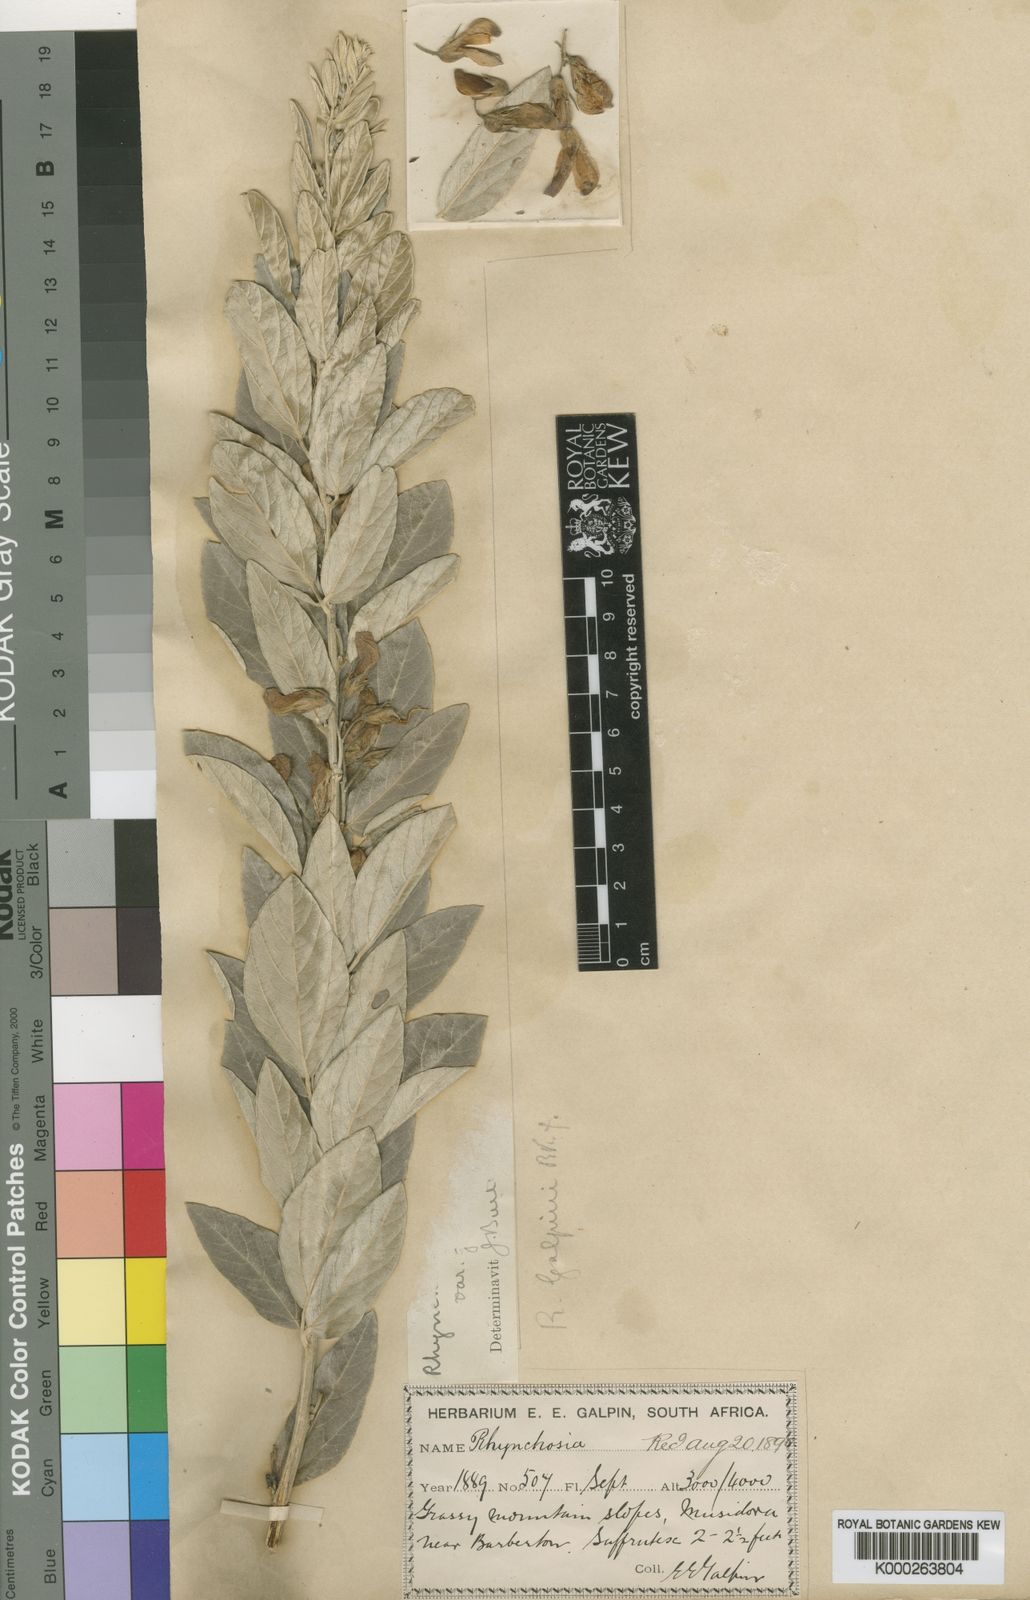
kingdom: Plantae
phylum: Tracheophyta
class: Magnoliopsida
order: Fabales
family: Fabaceae
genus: Rhynchosia
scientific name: Rhynchosia galpinii
